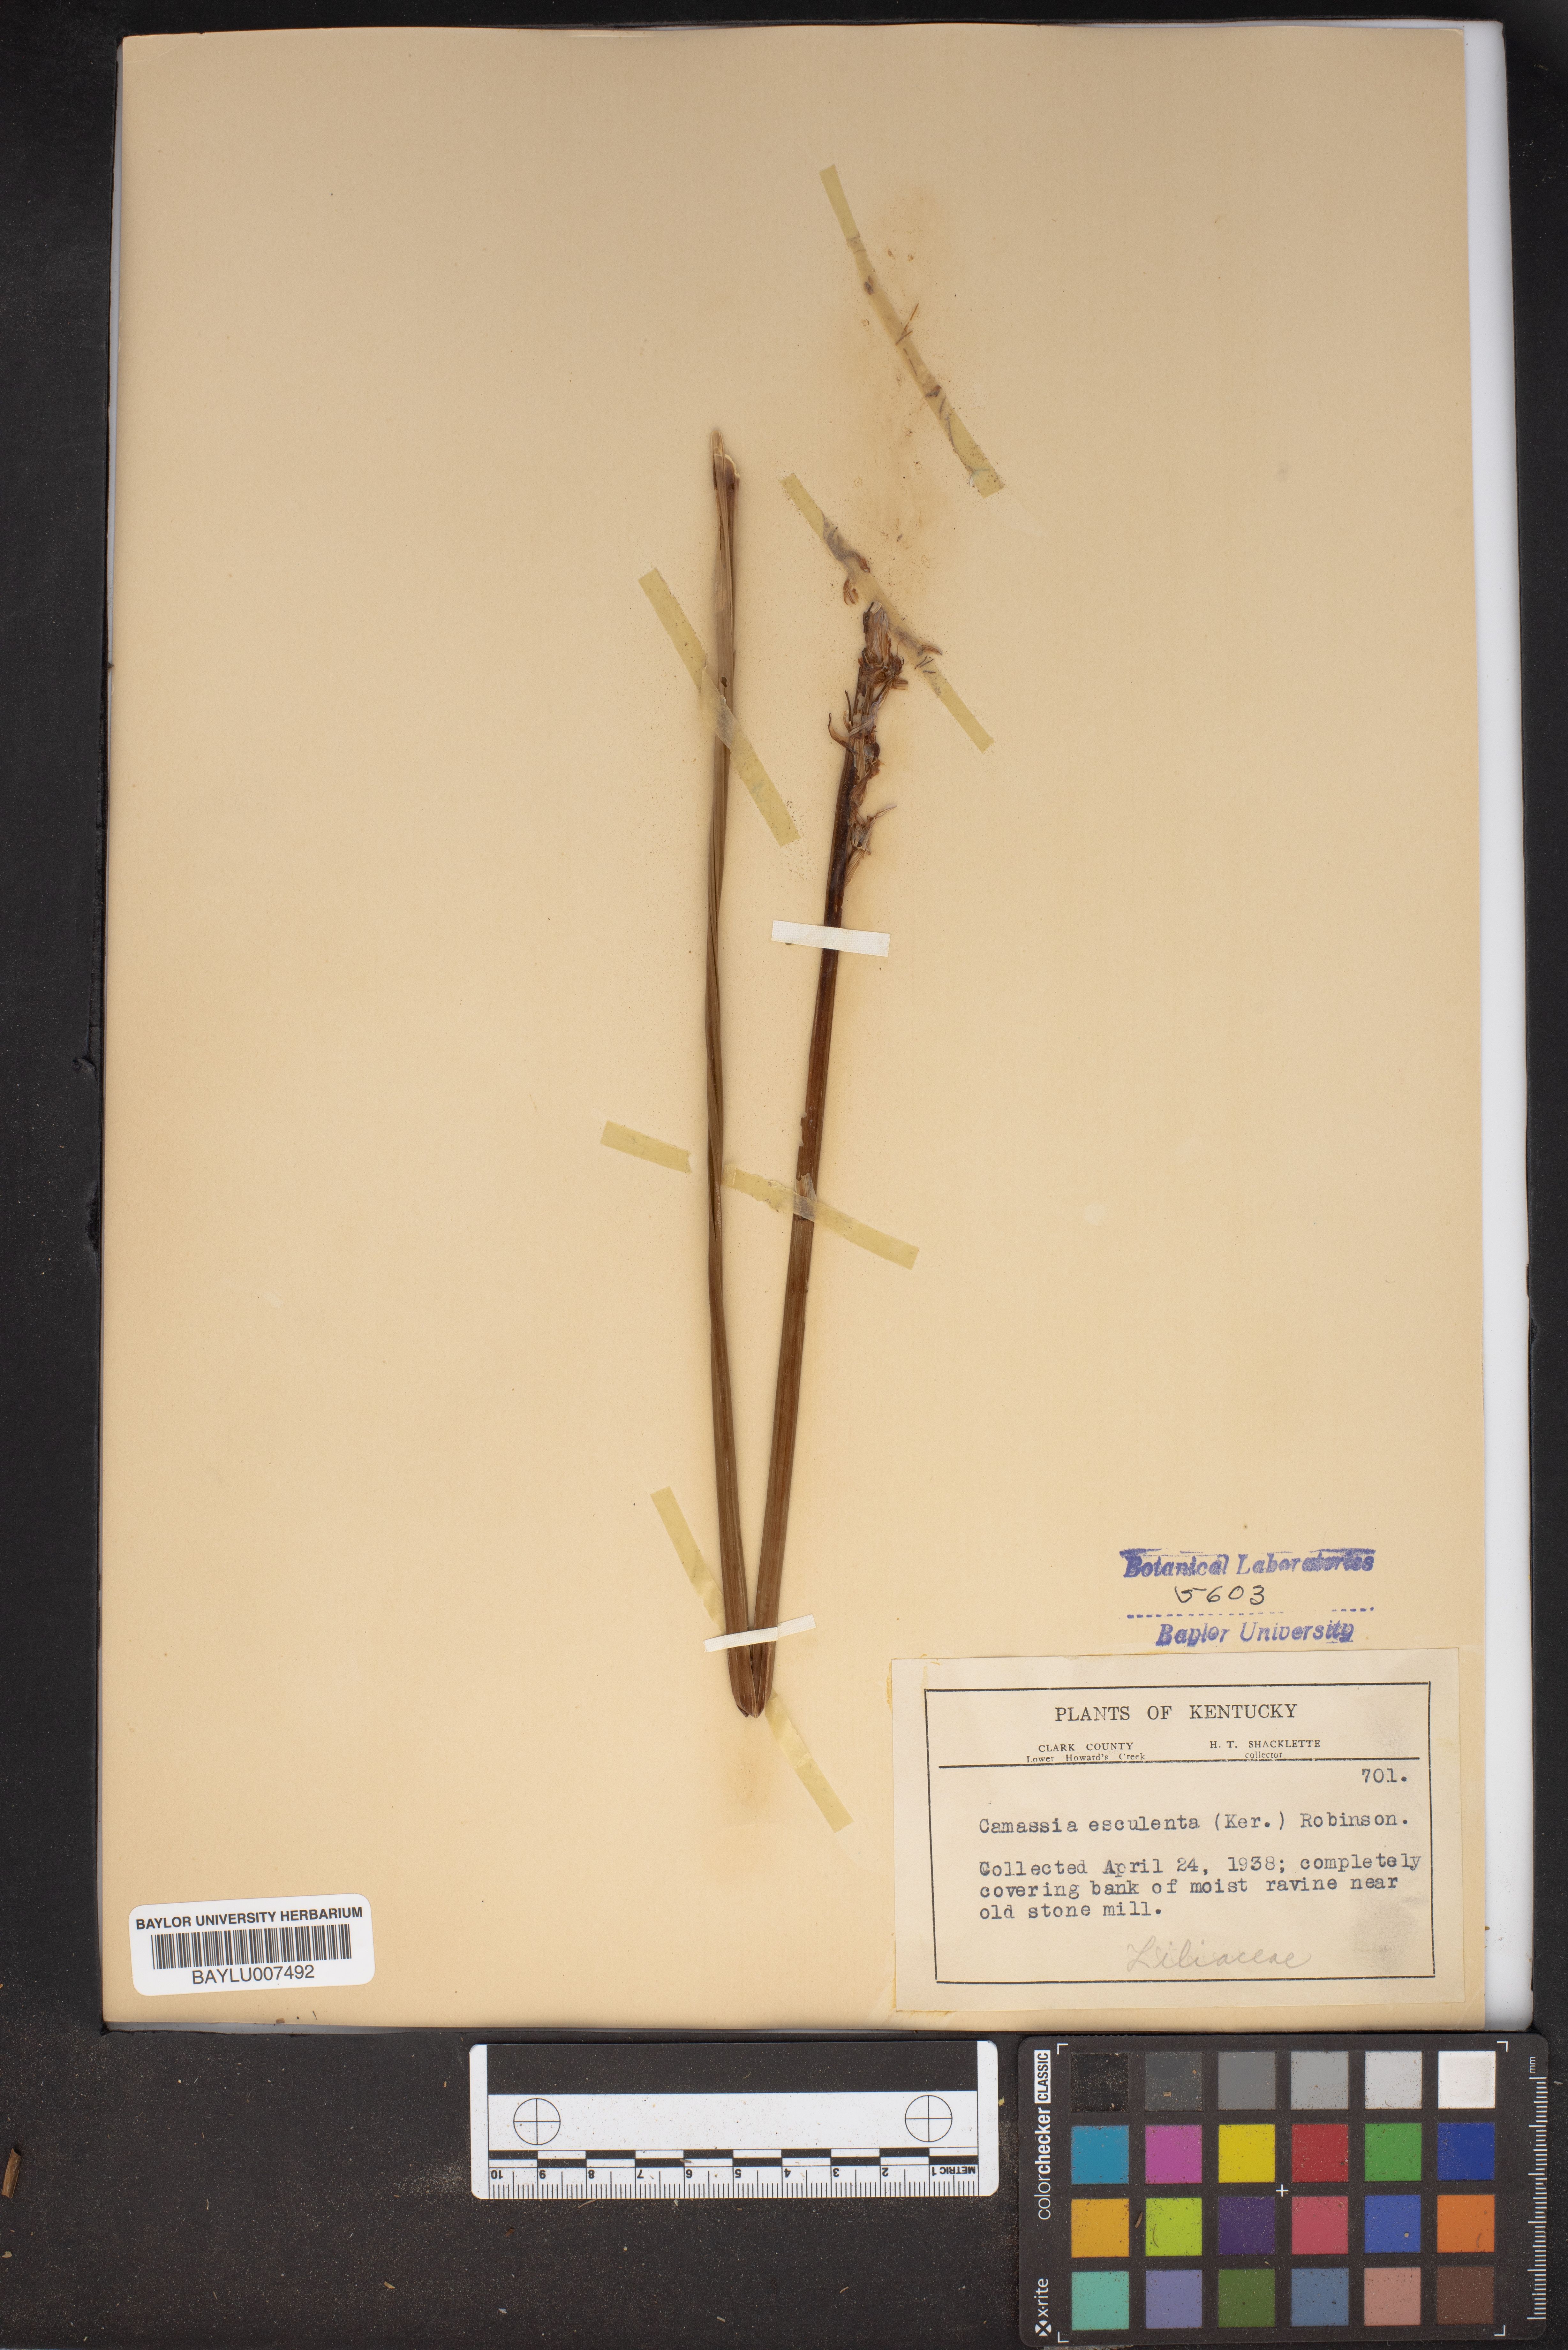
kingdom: Plantae
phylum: Tracheophyta
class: Liliopsida
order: Asparagales
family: Asparagaceae
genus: Camassia
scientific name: Camassia scilloides
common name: Wild hyacinth
